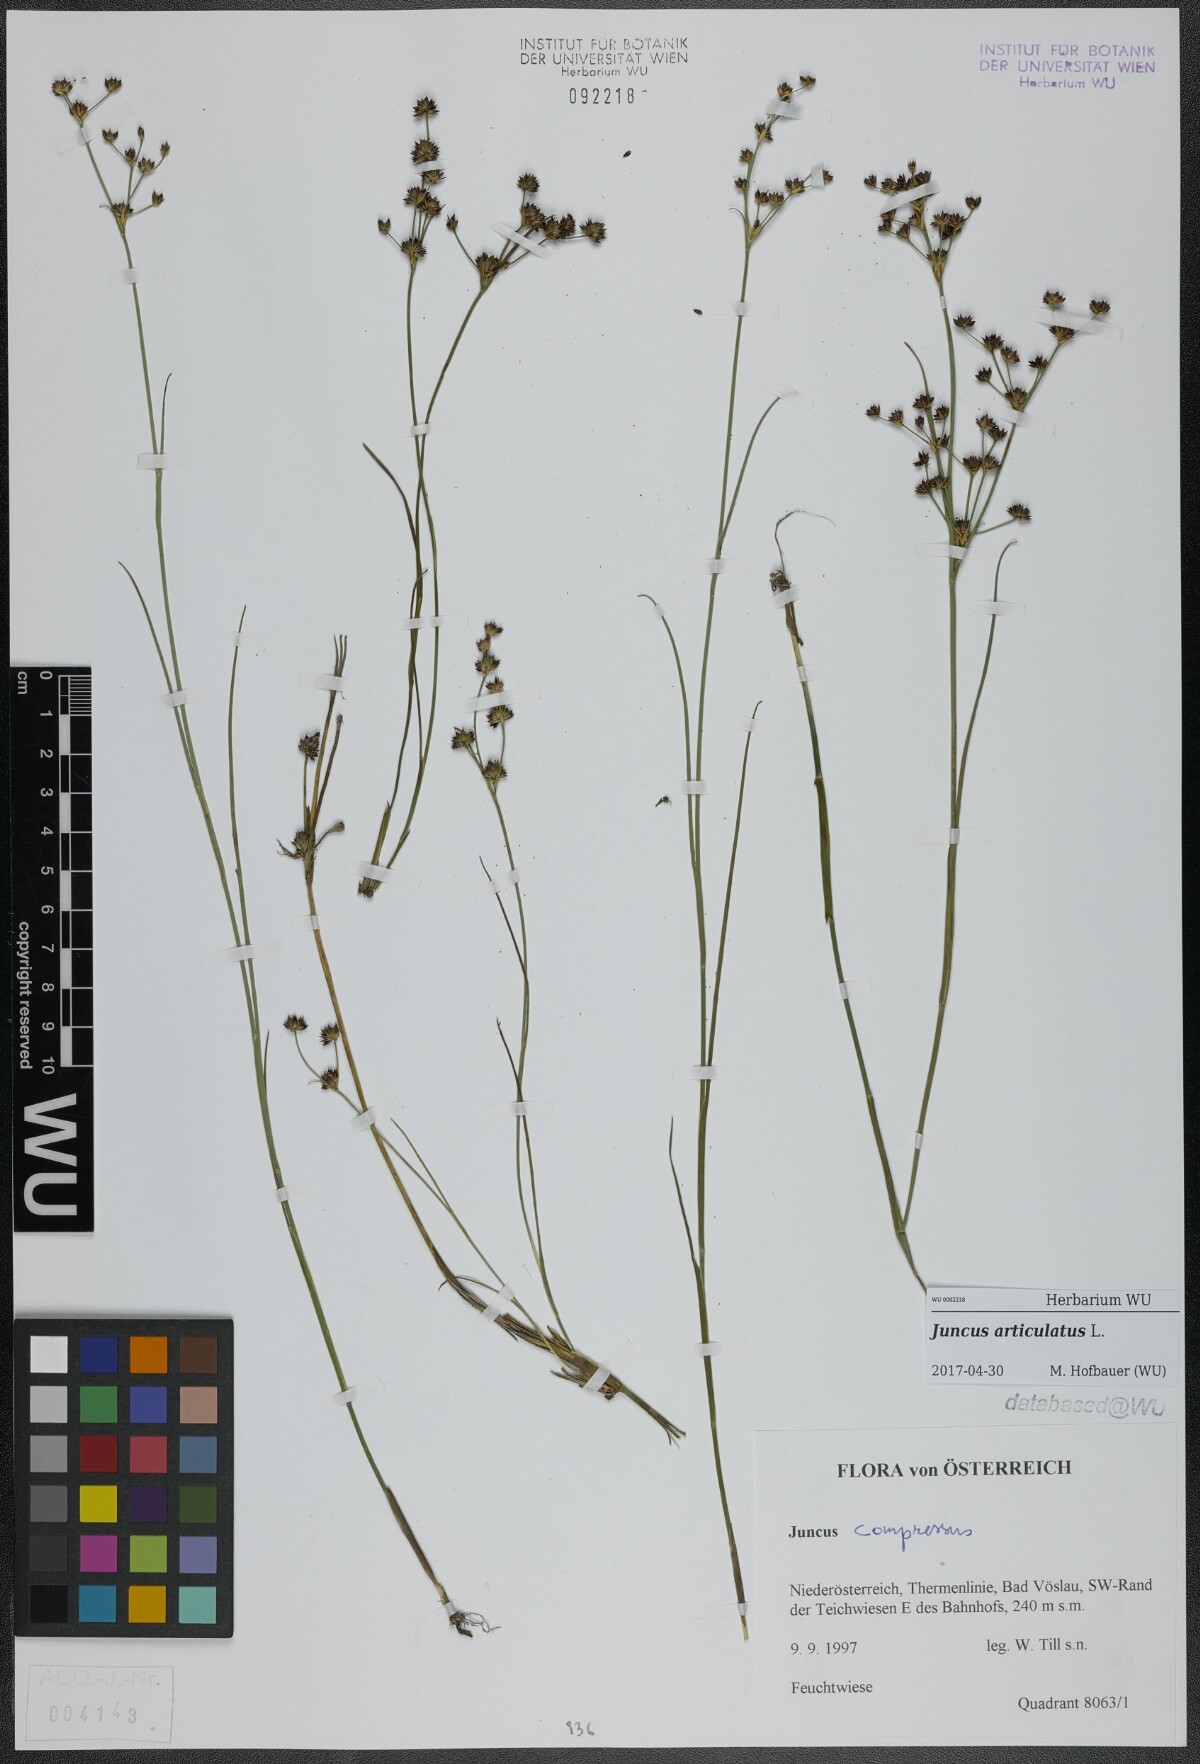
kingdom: Plantae
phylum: Tracheophyta
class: Liliopsida
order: Poales
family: Juncaceae
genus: Juncus
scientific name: Juncus articulatus
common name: Jointed rush
